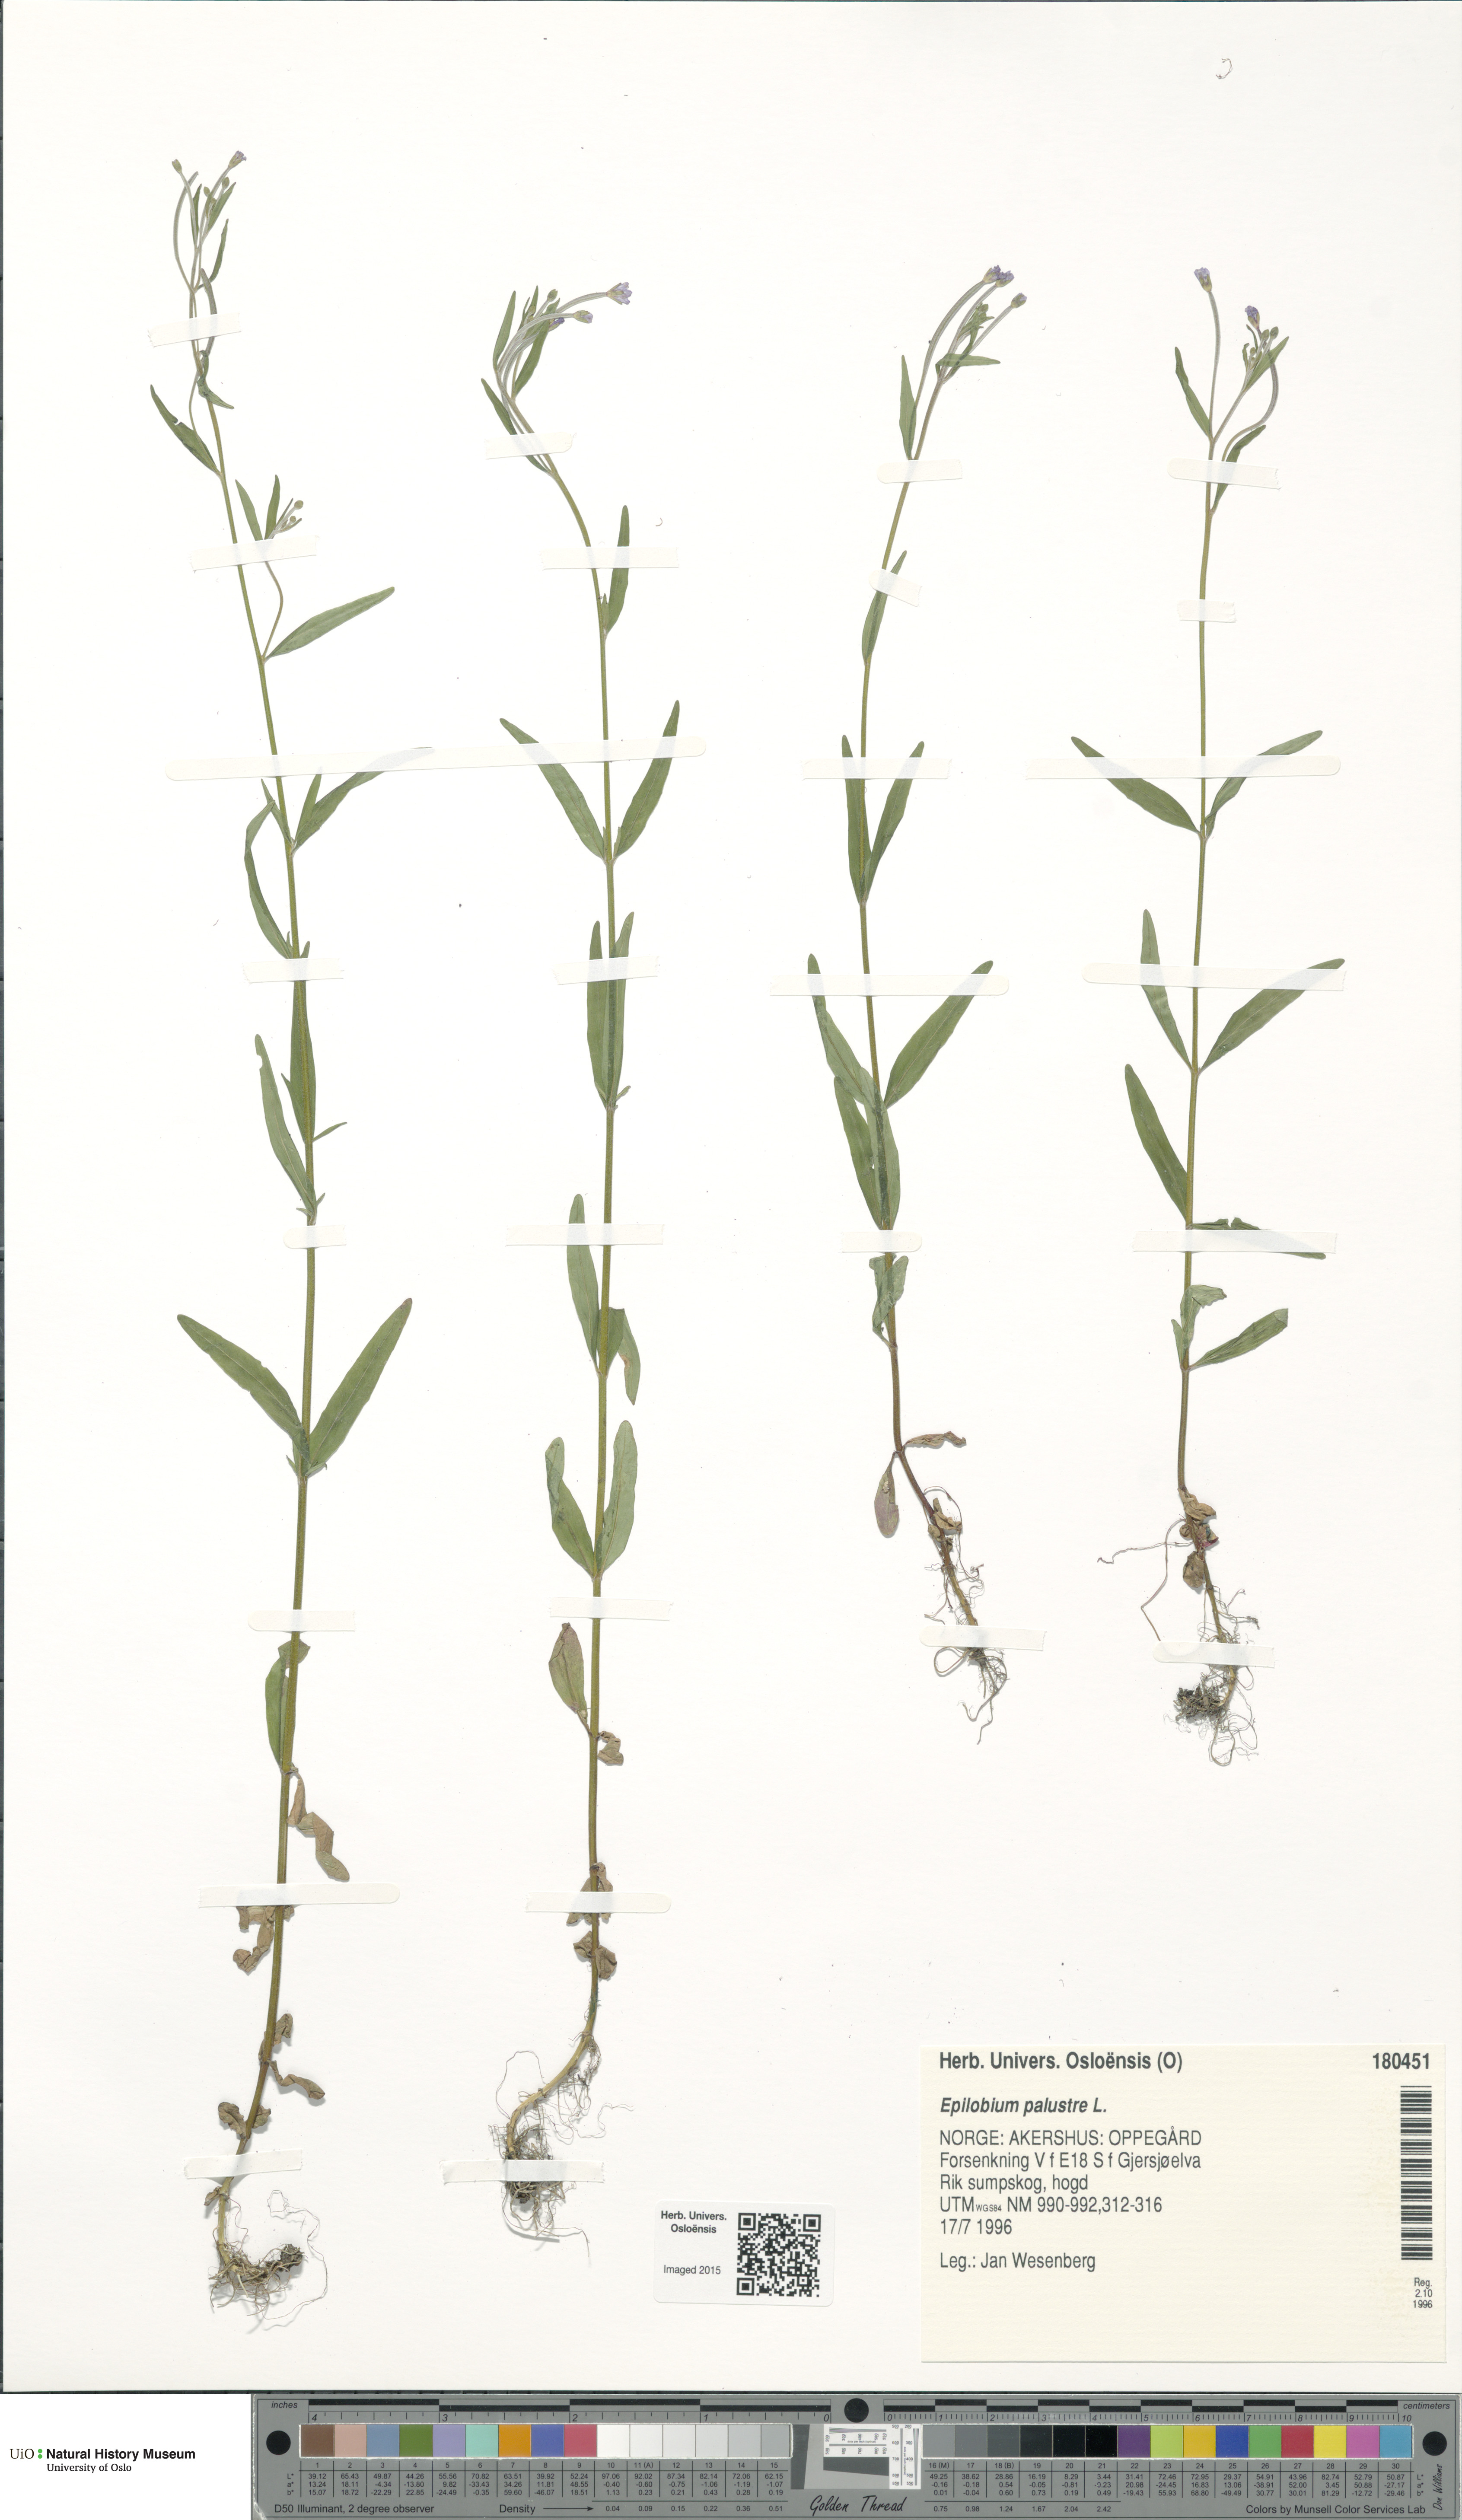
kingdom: Plantae
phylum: Tracheophyta
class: Magnoliopsida
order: Myrtales
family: Onagraceae
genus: Epilobium
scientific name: Epilobium palustre
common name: Marsh willowherb
